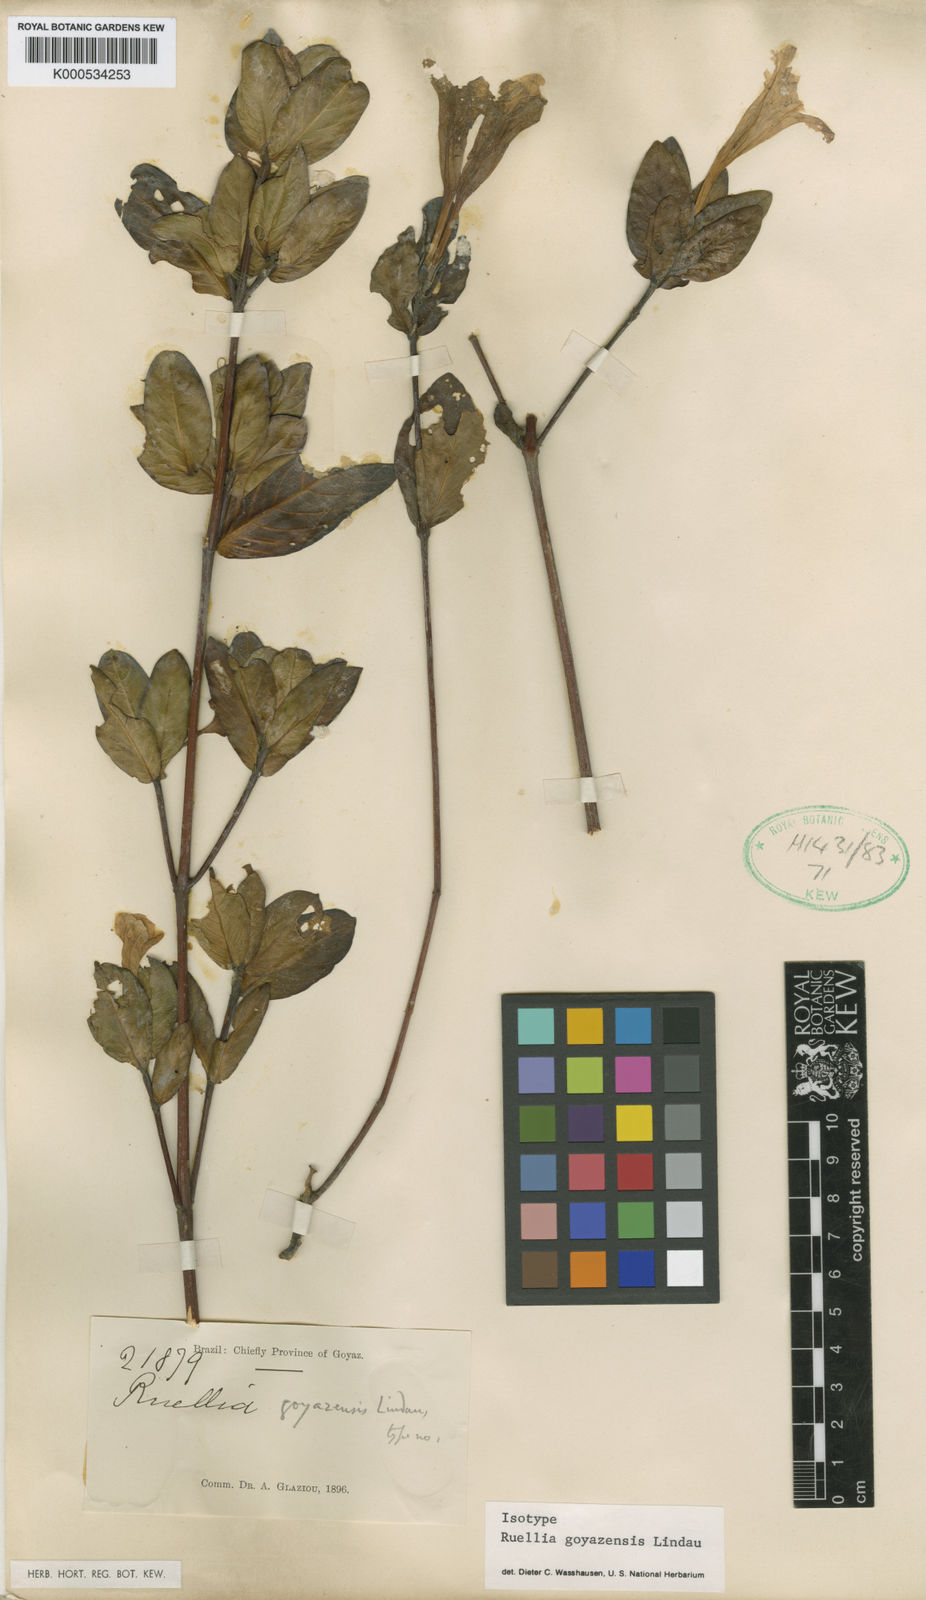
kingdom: Plantae
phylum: Tracheophyta
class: Magnoliopsida
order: Lamiales
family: Acanthaceae
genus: Ruellia
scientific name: Ruellia
